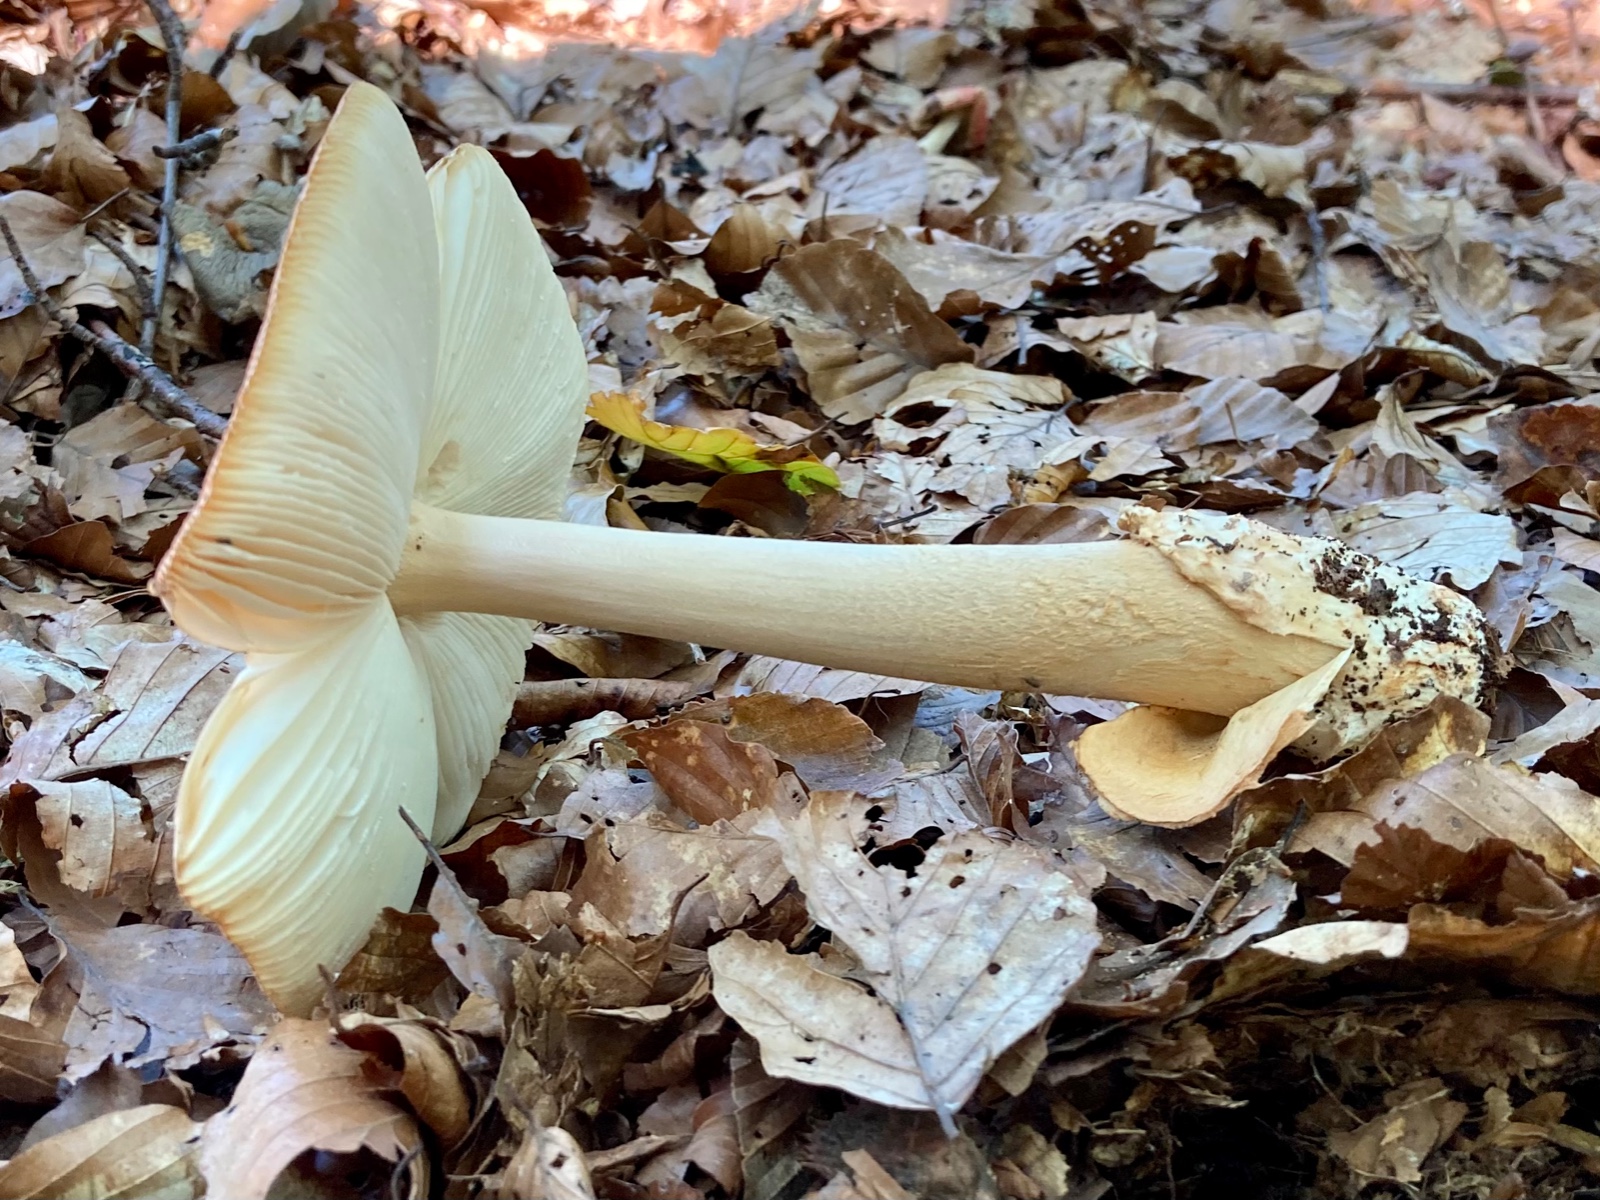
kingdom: Fungi
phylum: Basidiomycota
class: Agaricomycetes
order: Agaricales
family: Amanitaceae
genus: Amanita
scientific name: Amanita fulva
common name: brun kam-fluesvamp
